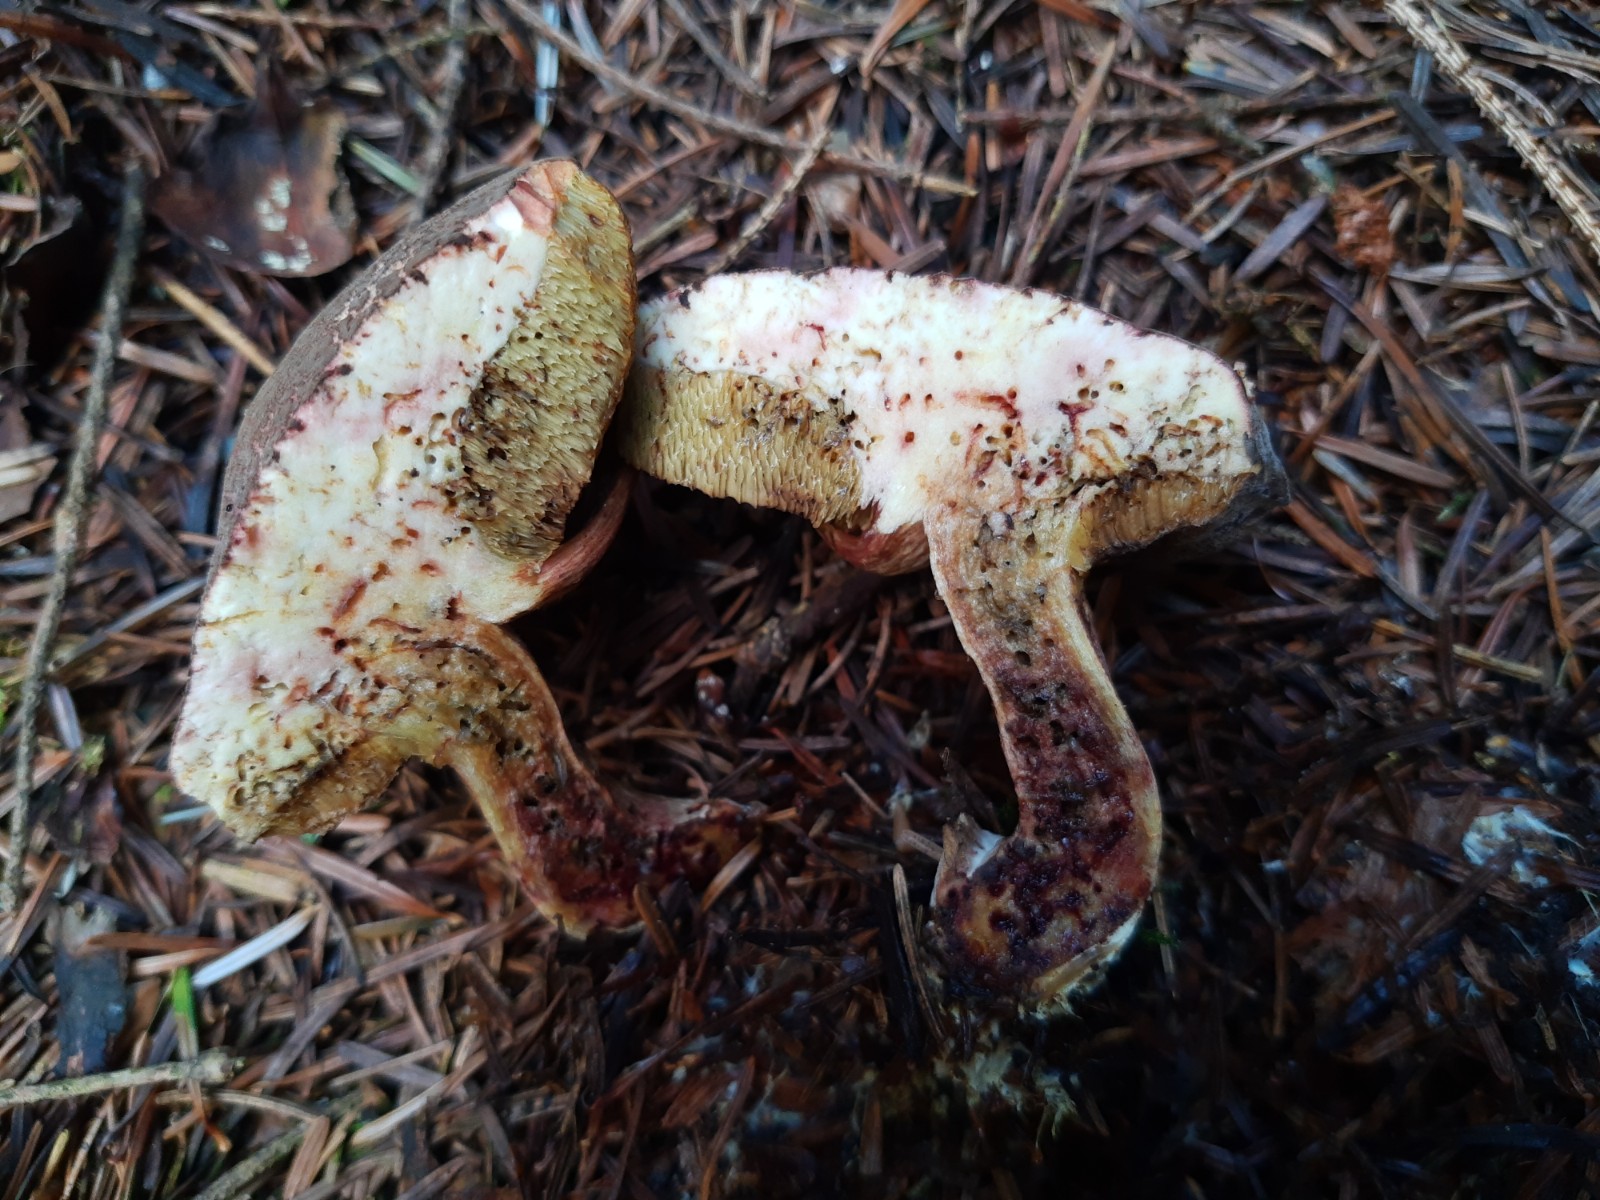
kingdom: Fungi
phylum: Basidiomycota
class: Agaricomycetes
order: Boletales
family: Boletaceae
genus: Xerocomellus
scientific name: Xerocomellus chrysenteron
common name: rødsprukken rørhat
